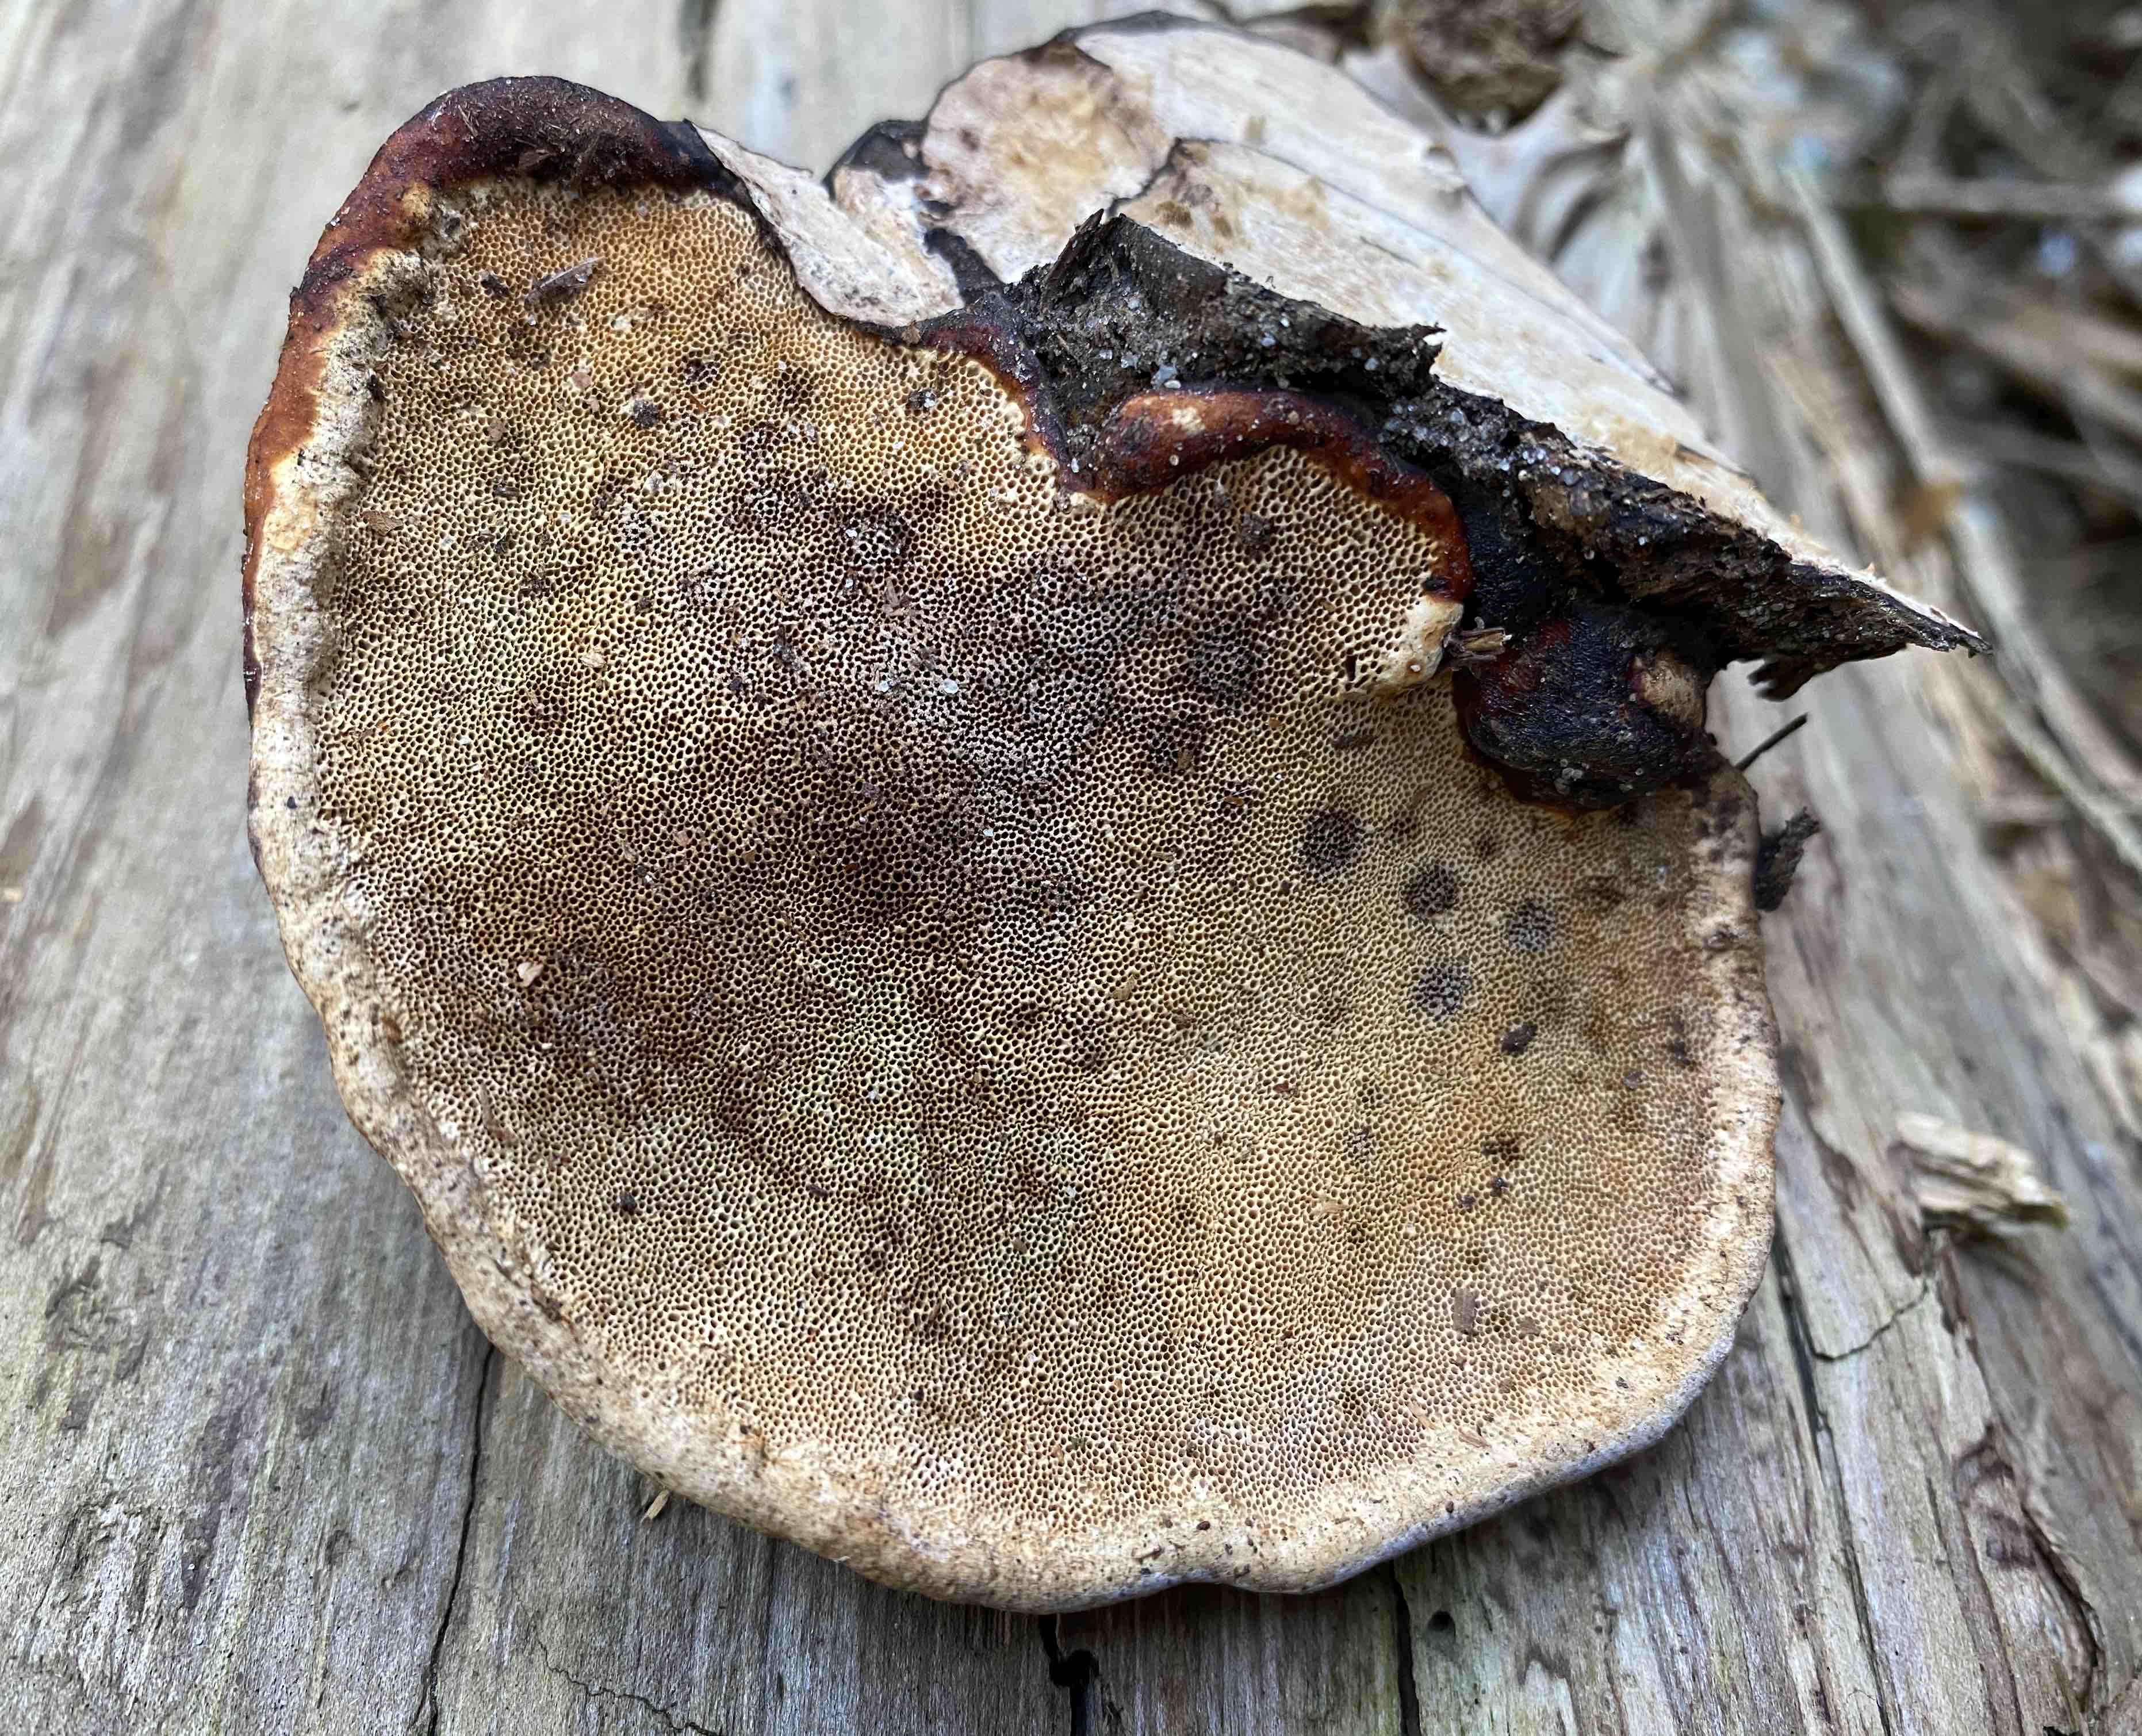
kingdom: Fungi
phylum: Basidiomycota
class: Agaricomycetes
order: Polyporales
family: Fomitopsidaceae
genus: Fomitopsis
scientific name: Fomitopsis pinicola
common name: randbæltet hovporesvamp
